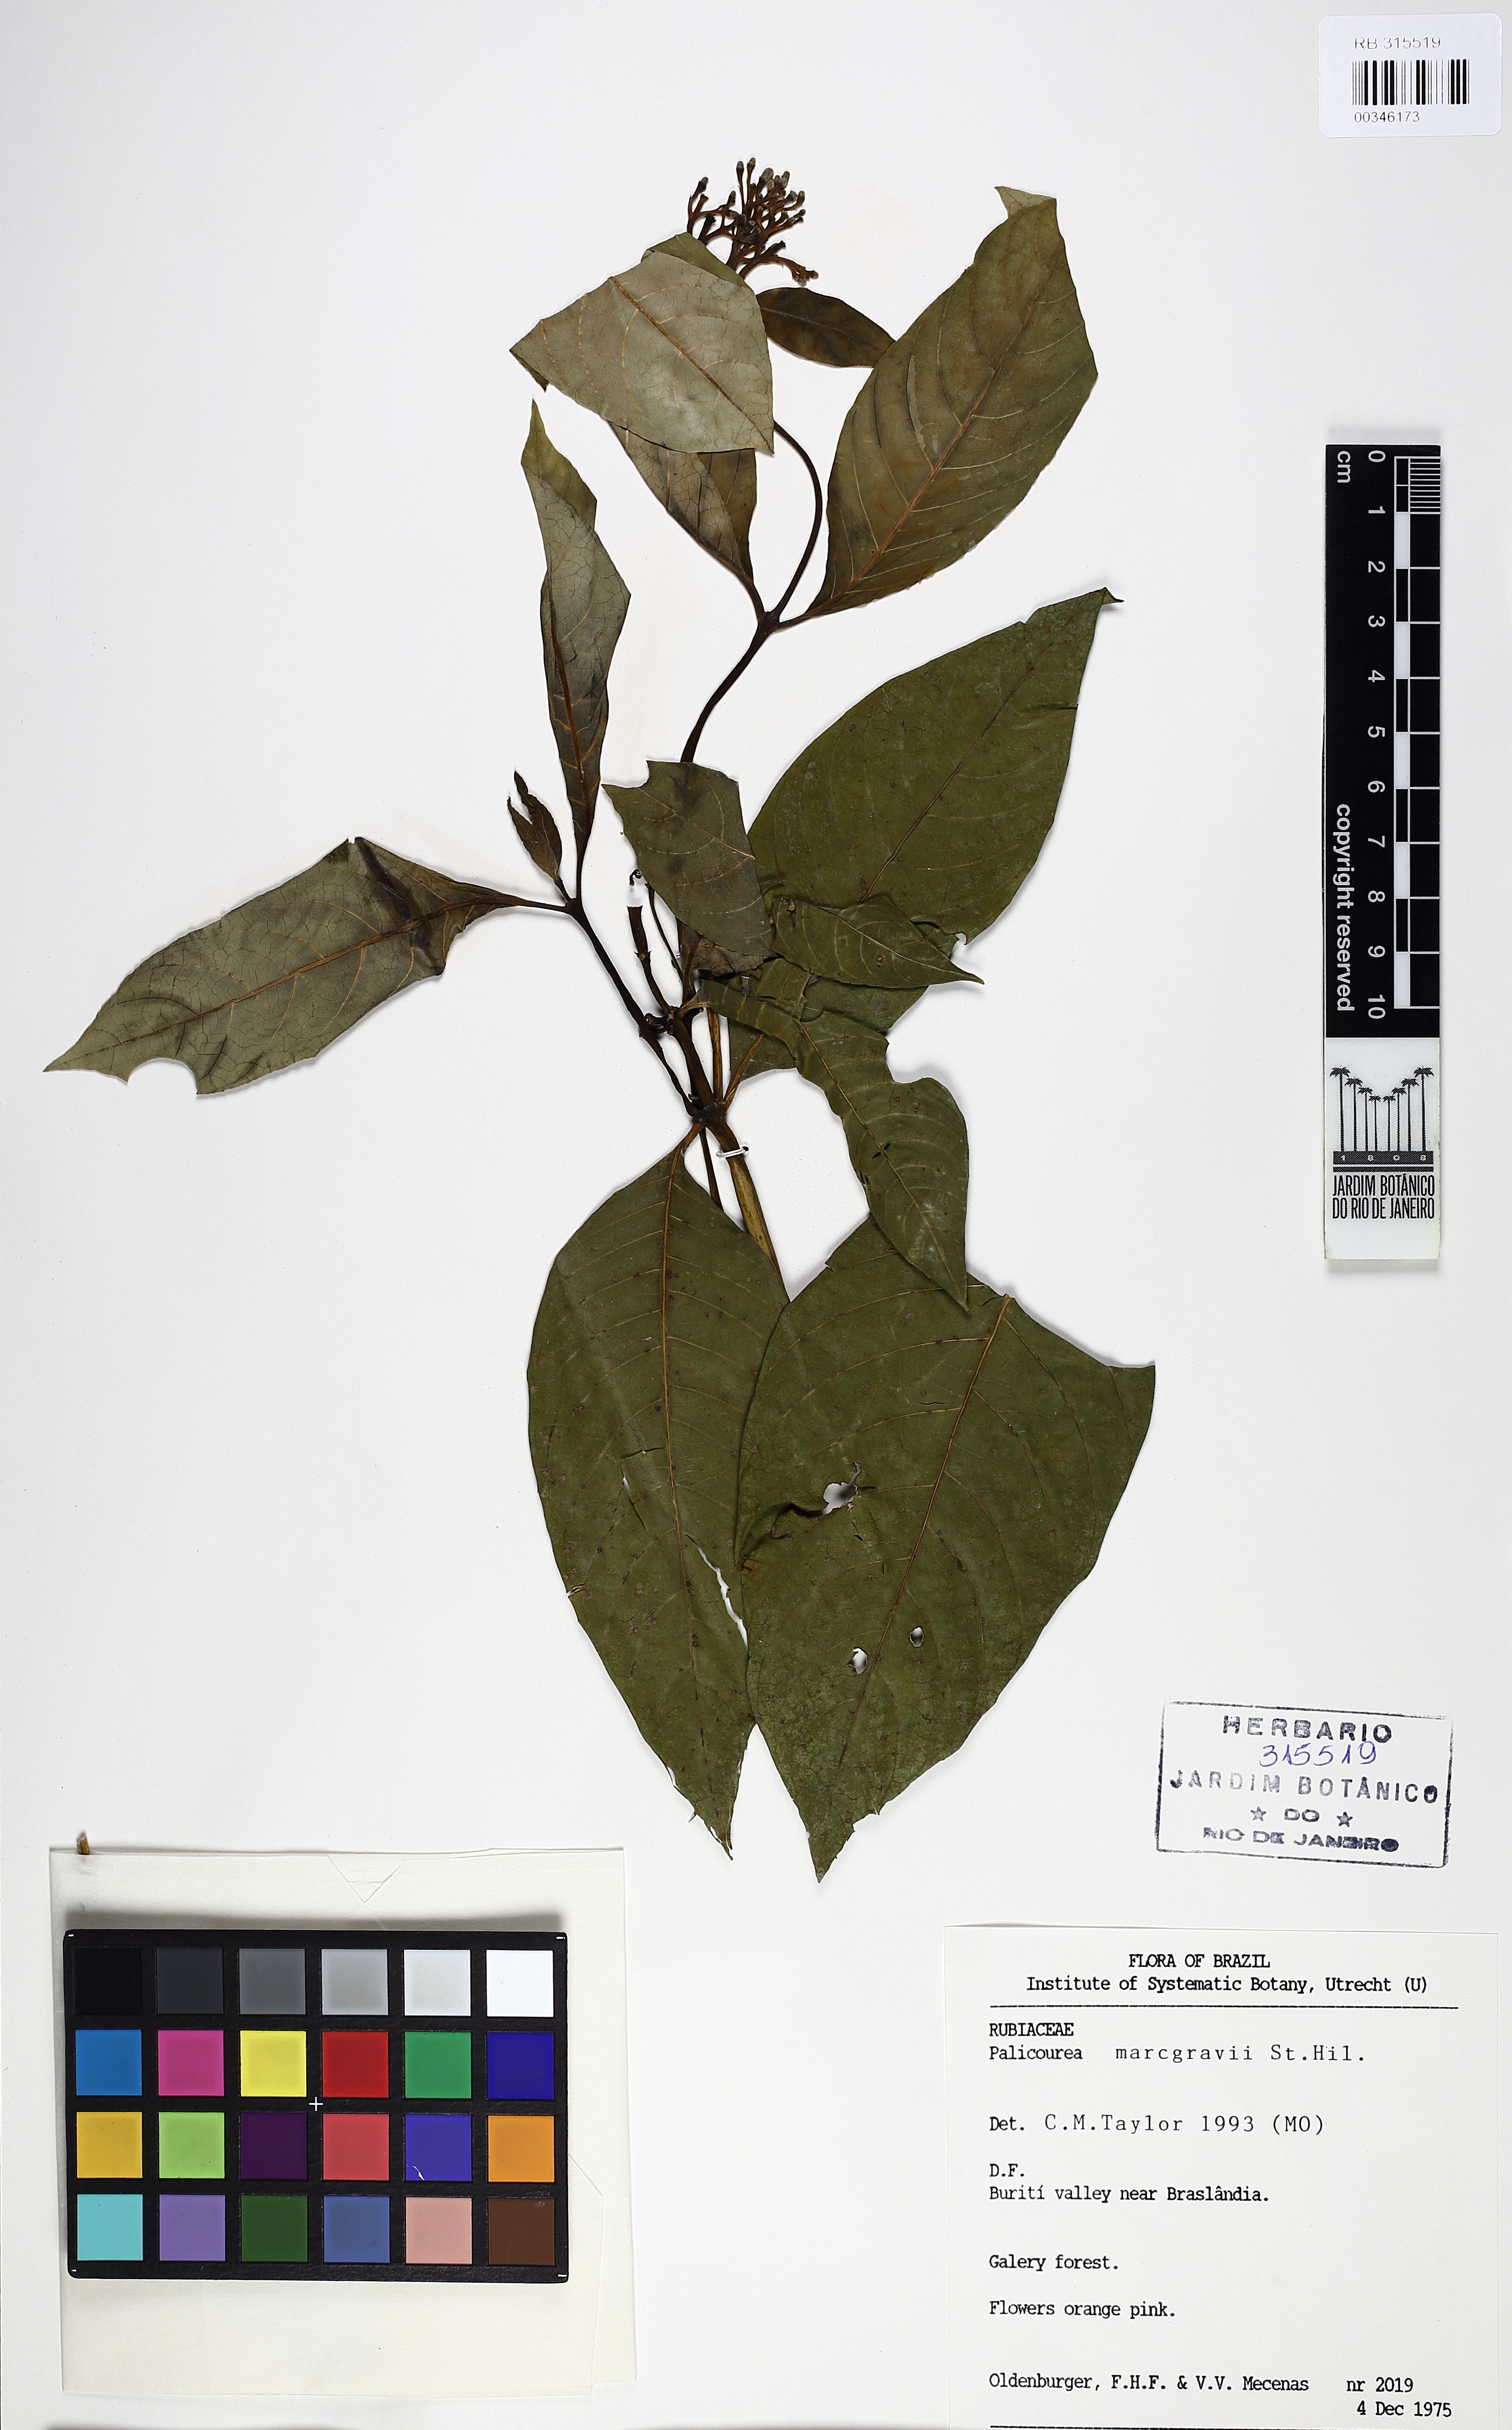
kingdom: Plantae
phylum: Tracheophyta
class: Magnoliopsida
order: Gentianales
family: Rubiaceae
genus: Palicourea
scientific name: Palicourea marcgravii
